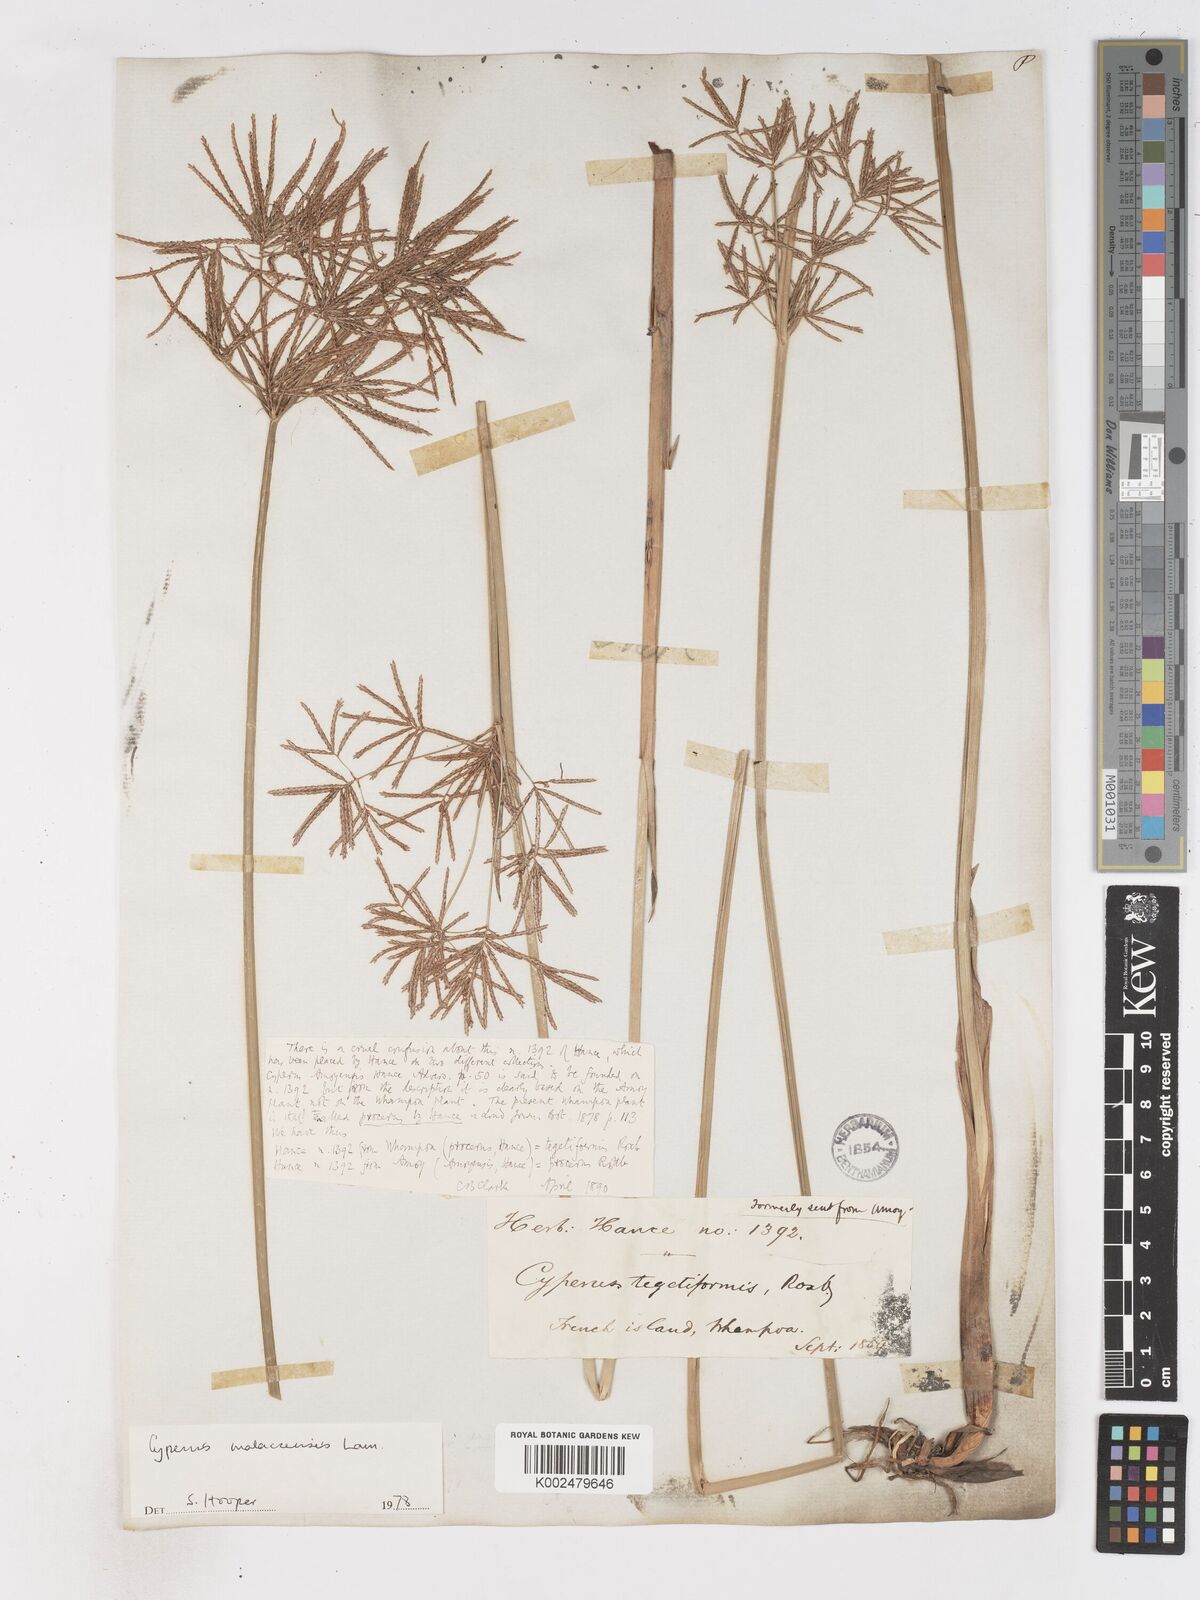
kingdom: Plantae
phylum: Tracheophyta
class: Liliopsida
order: Poales
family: Cyperaceae
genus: Cyperus
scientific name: Cyperus corymbosus
